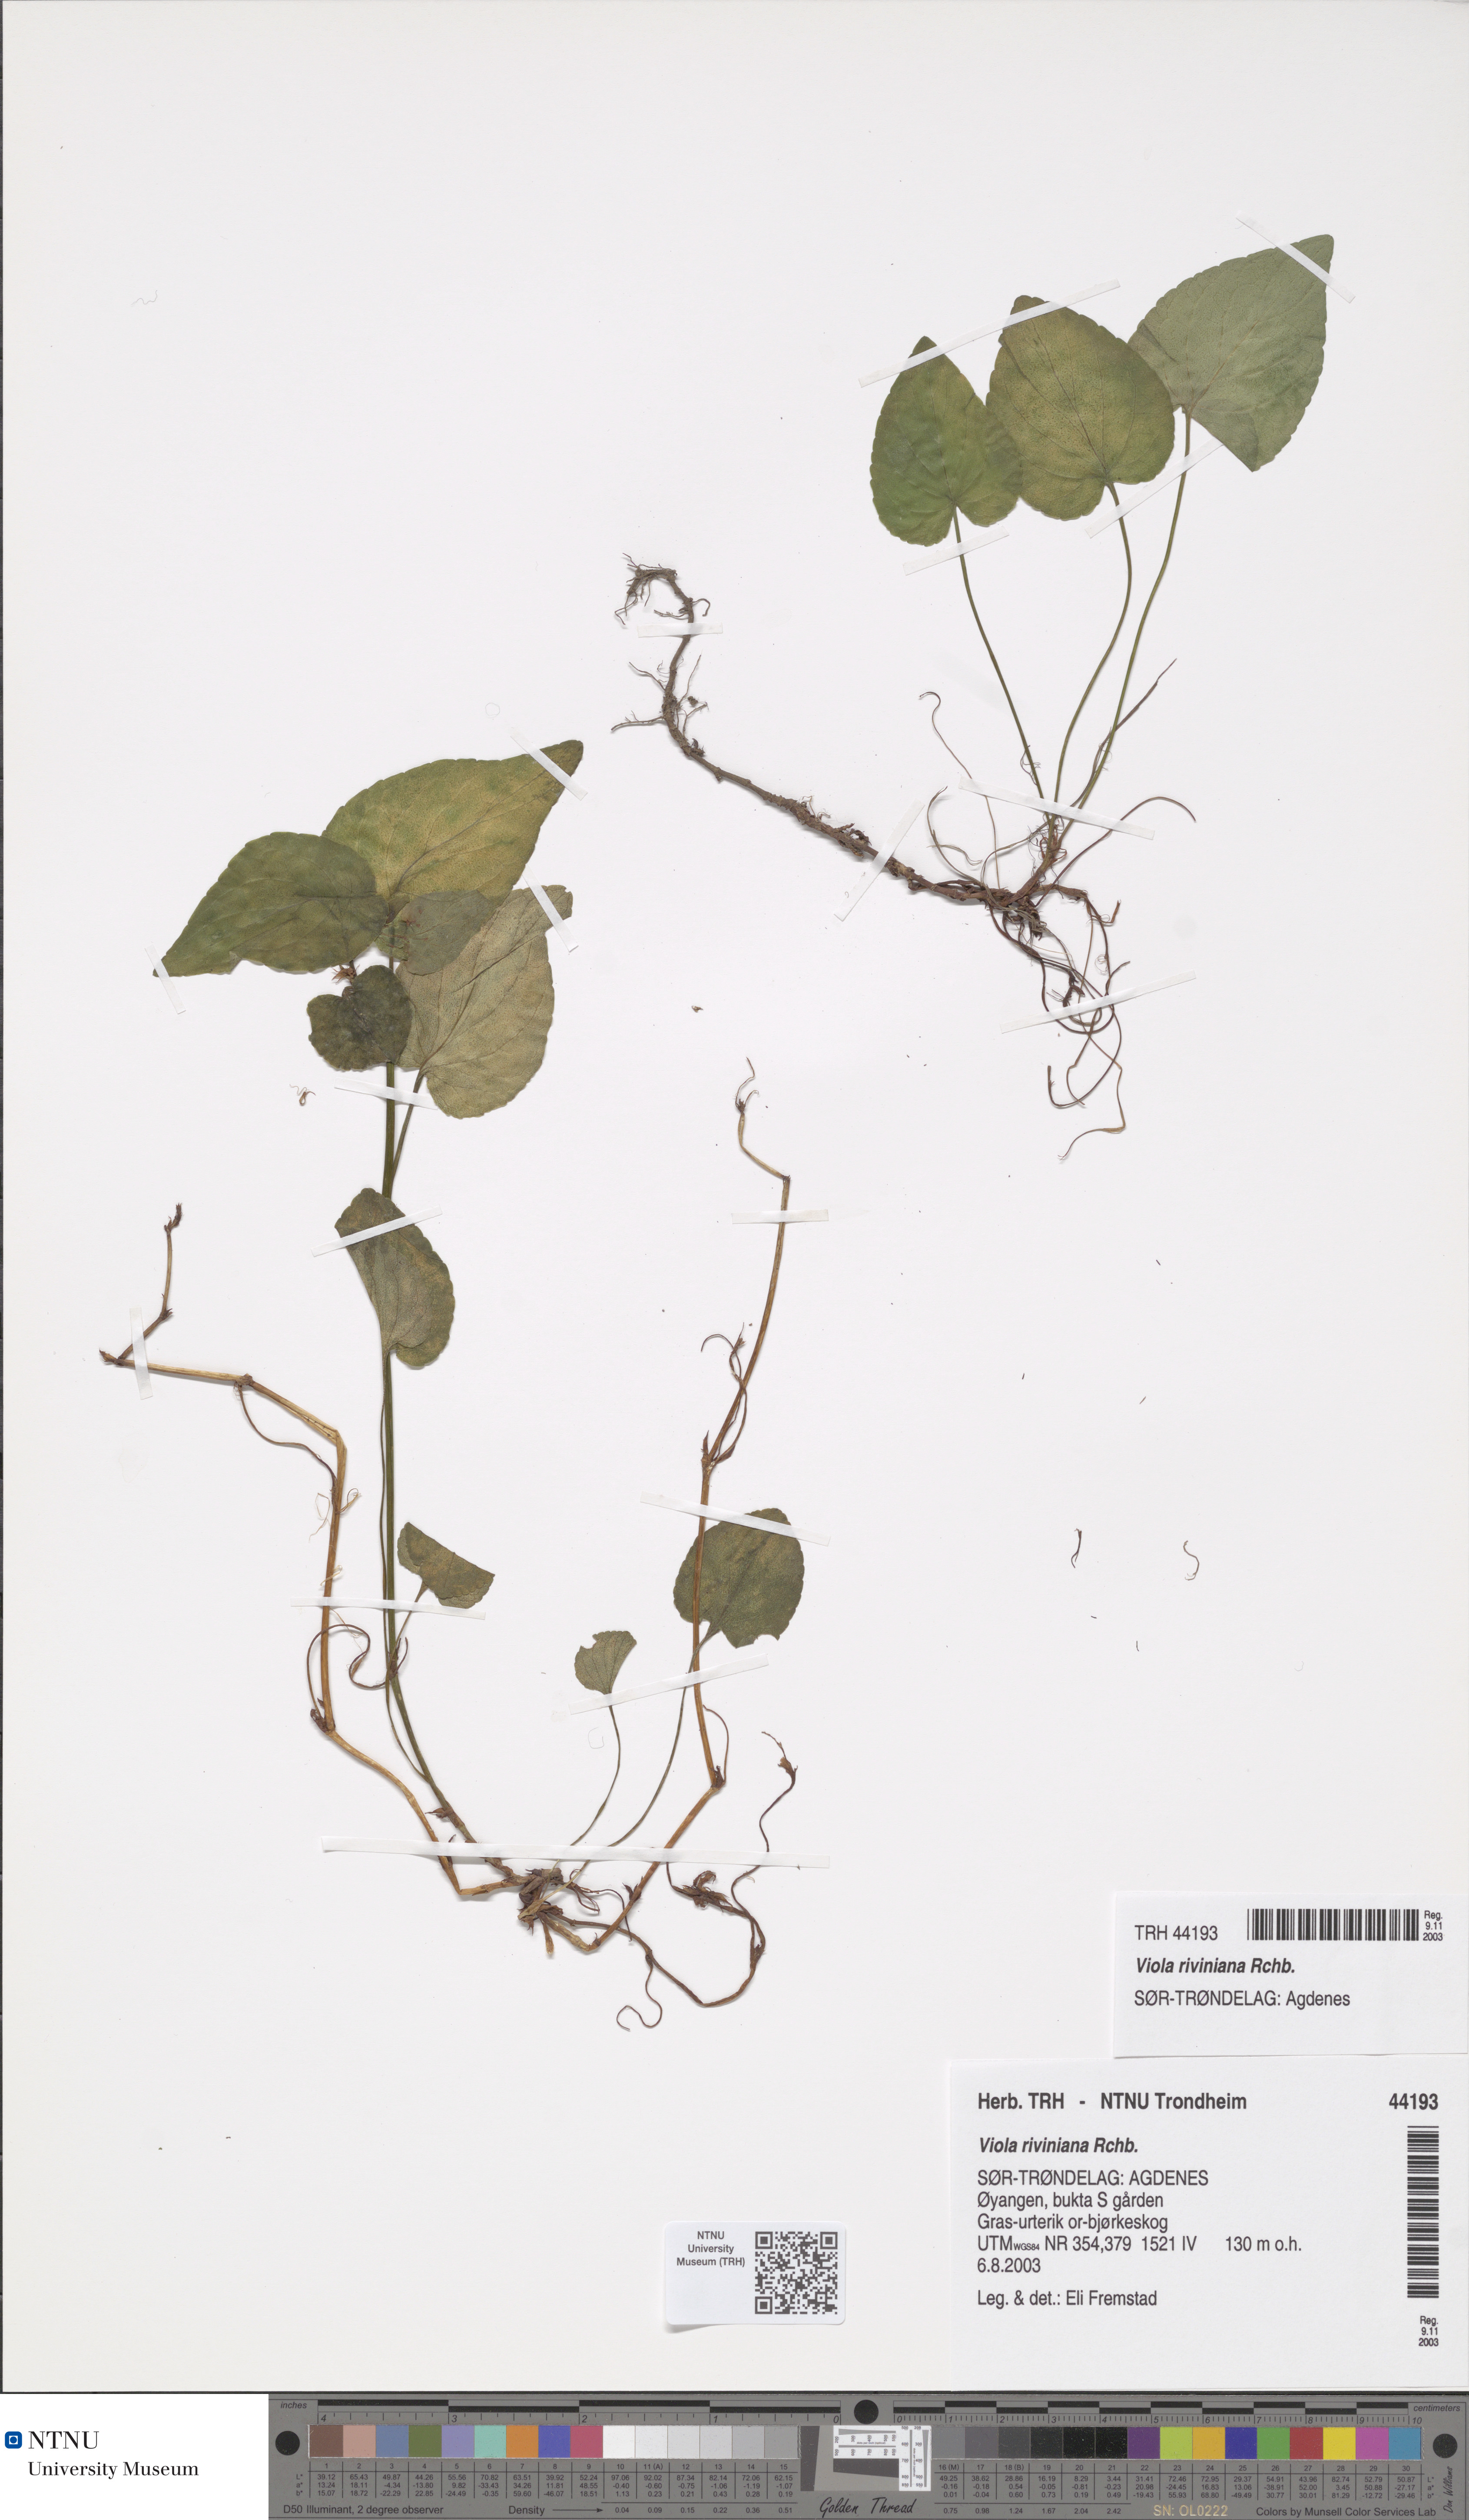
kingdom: Plantae
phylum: Tracheophyta
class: Magnoliopsida
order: Malpighiales
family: Violaceae
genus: Viola
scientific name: Viola riviniana
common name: Common dog-violet
